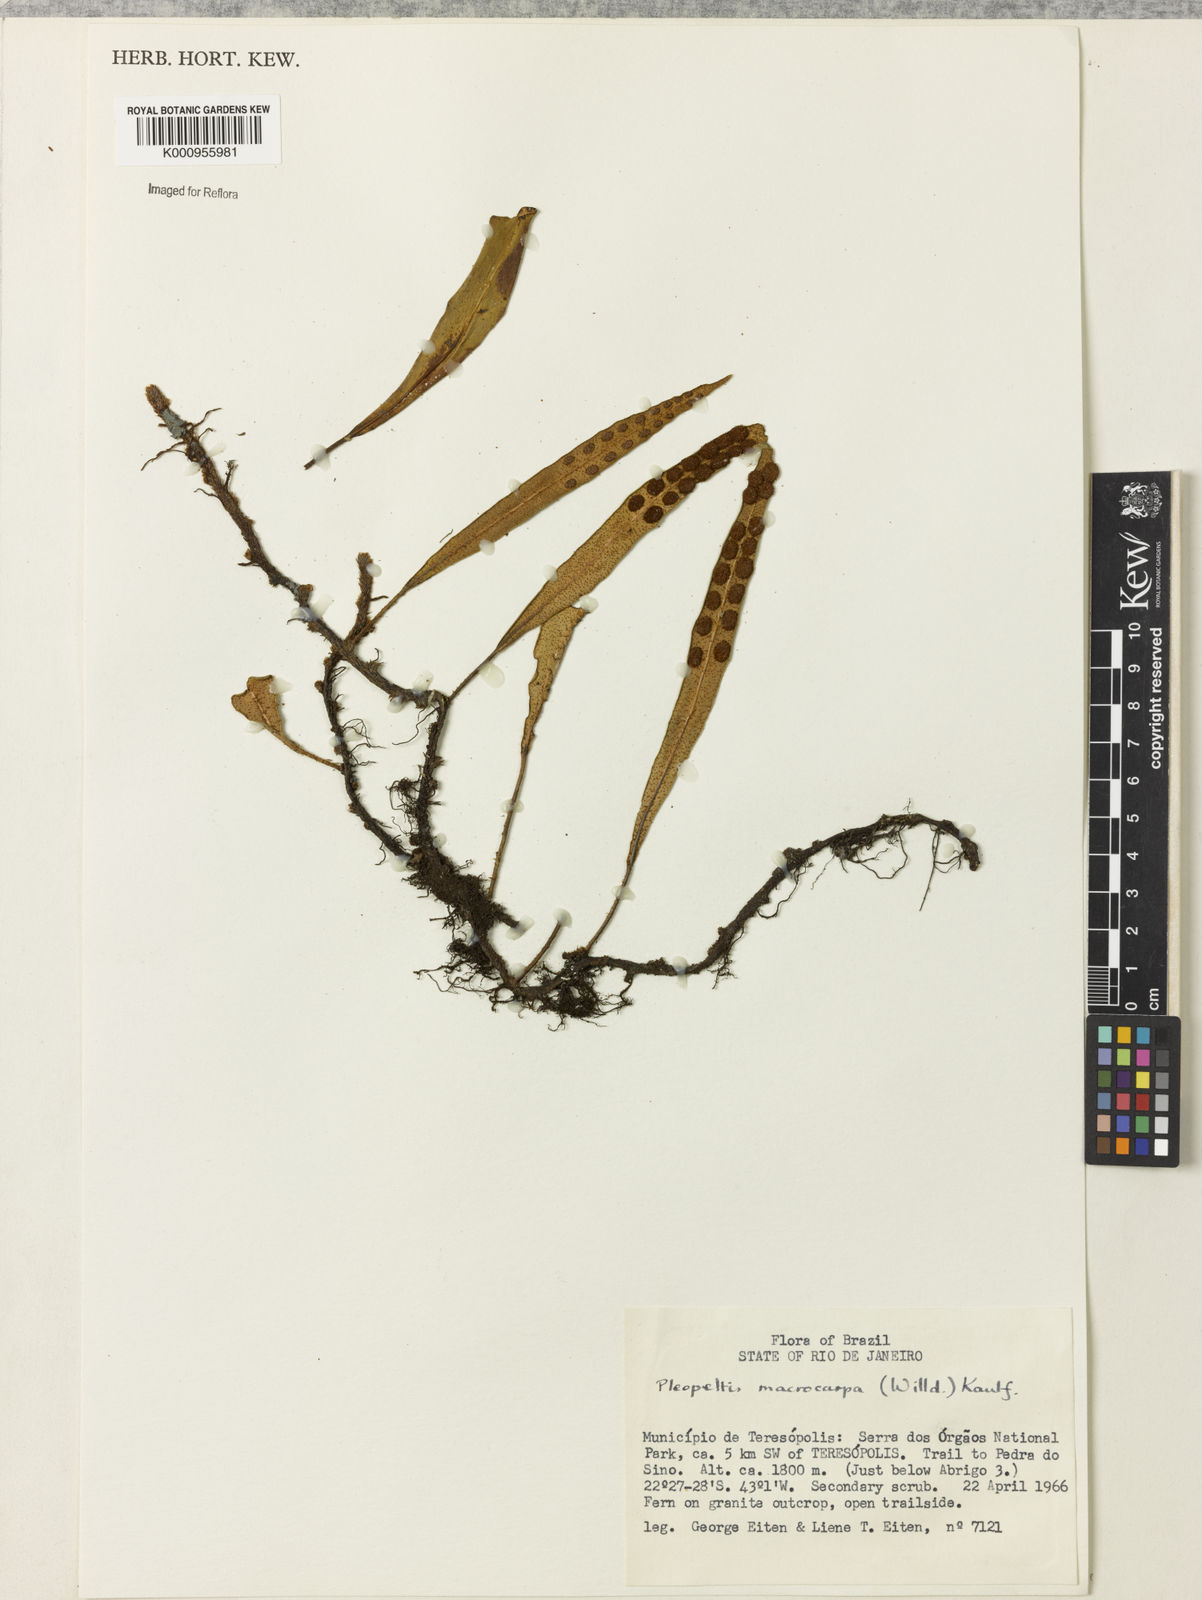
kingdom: Plantae
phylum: Tracheophyta
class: Polypodiopsida
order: Polypodiales
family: Polypodiaceae
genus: Pleopeltis
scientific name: Pleopeltis
